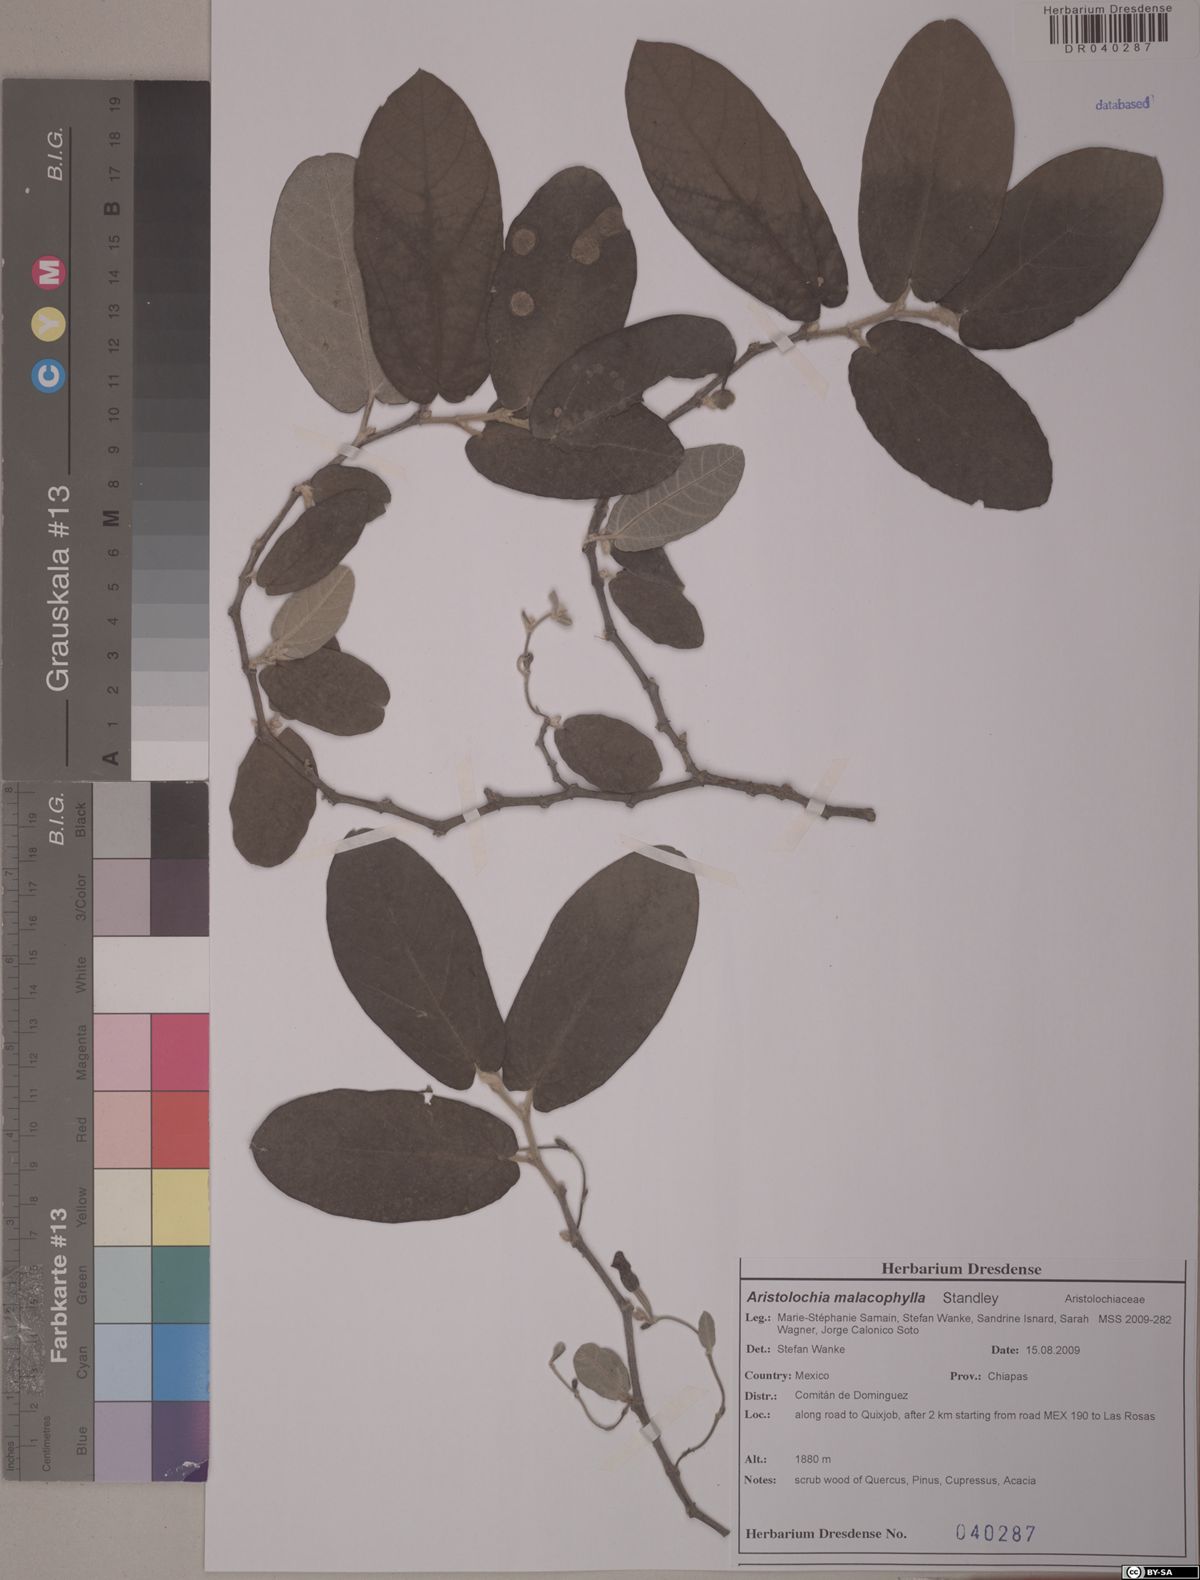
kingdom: Plantae
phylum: Tracheophyta
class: Magnoliopsida
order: Piperales
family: Aristolochiaceae
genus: Isotrema
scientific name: Isotrema malacophyllum
